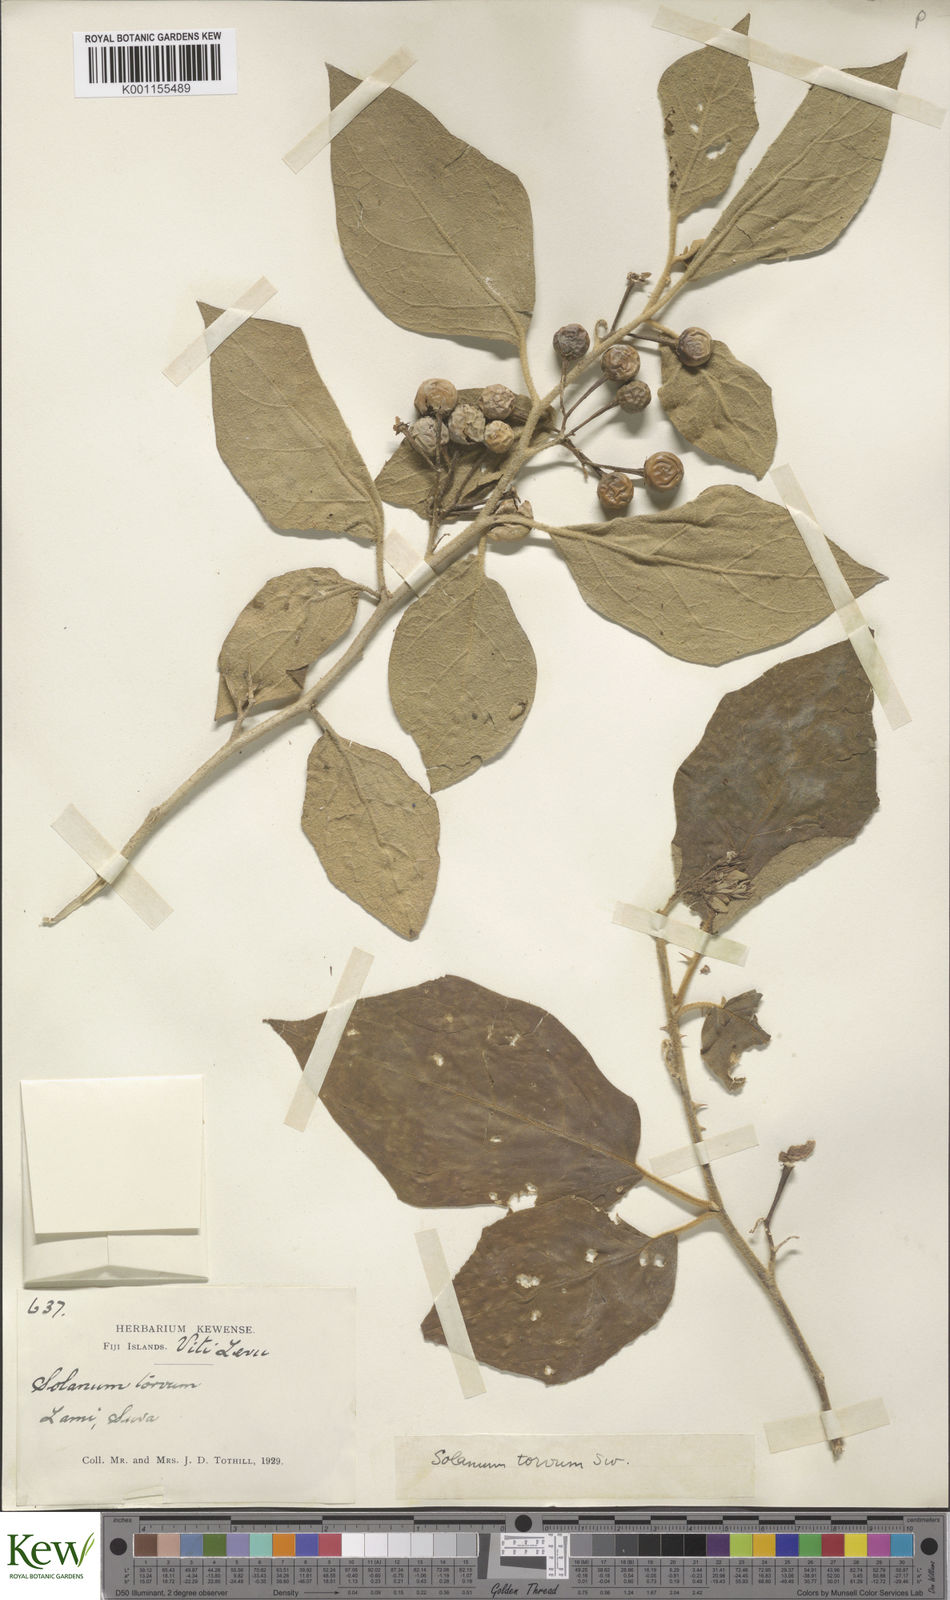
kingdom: Plantae
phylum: Tracheophyta
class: Magnoliopsida
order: Solanales
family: Solanaceae
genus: Solanum
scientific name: Solanum torvum
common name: Turkey berry
